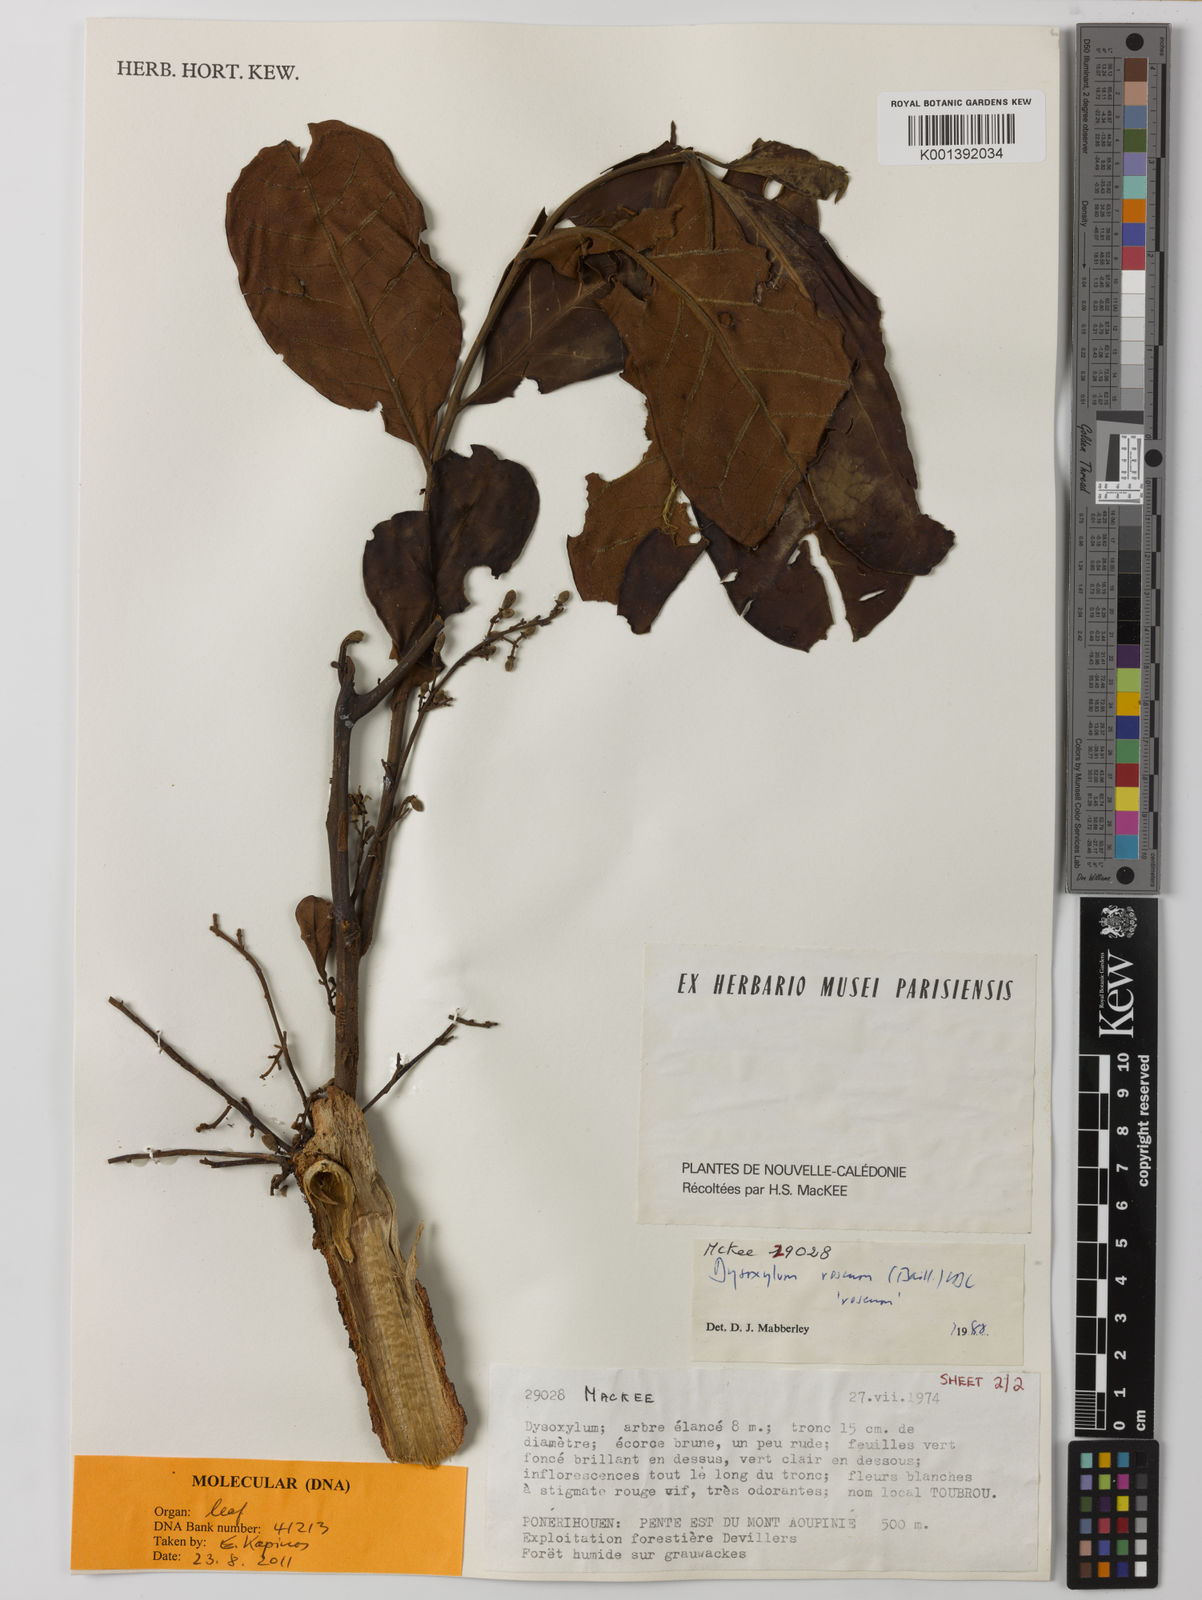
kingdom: Plantae
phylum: Tracheophyta
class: Magnoliopsida
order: Sapindales
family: Meliaceae
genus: Didymocheton
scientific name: Didymocheton roseus
